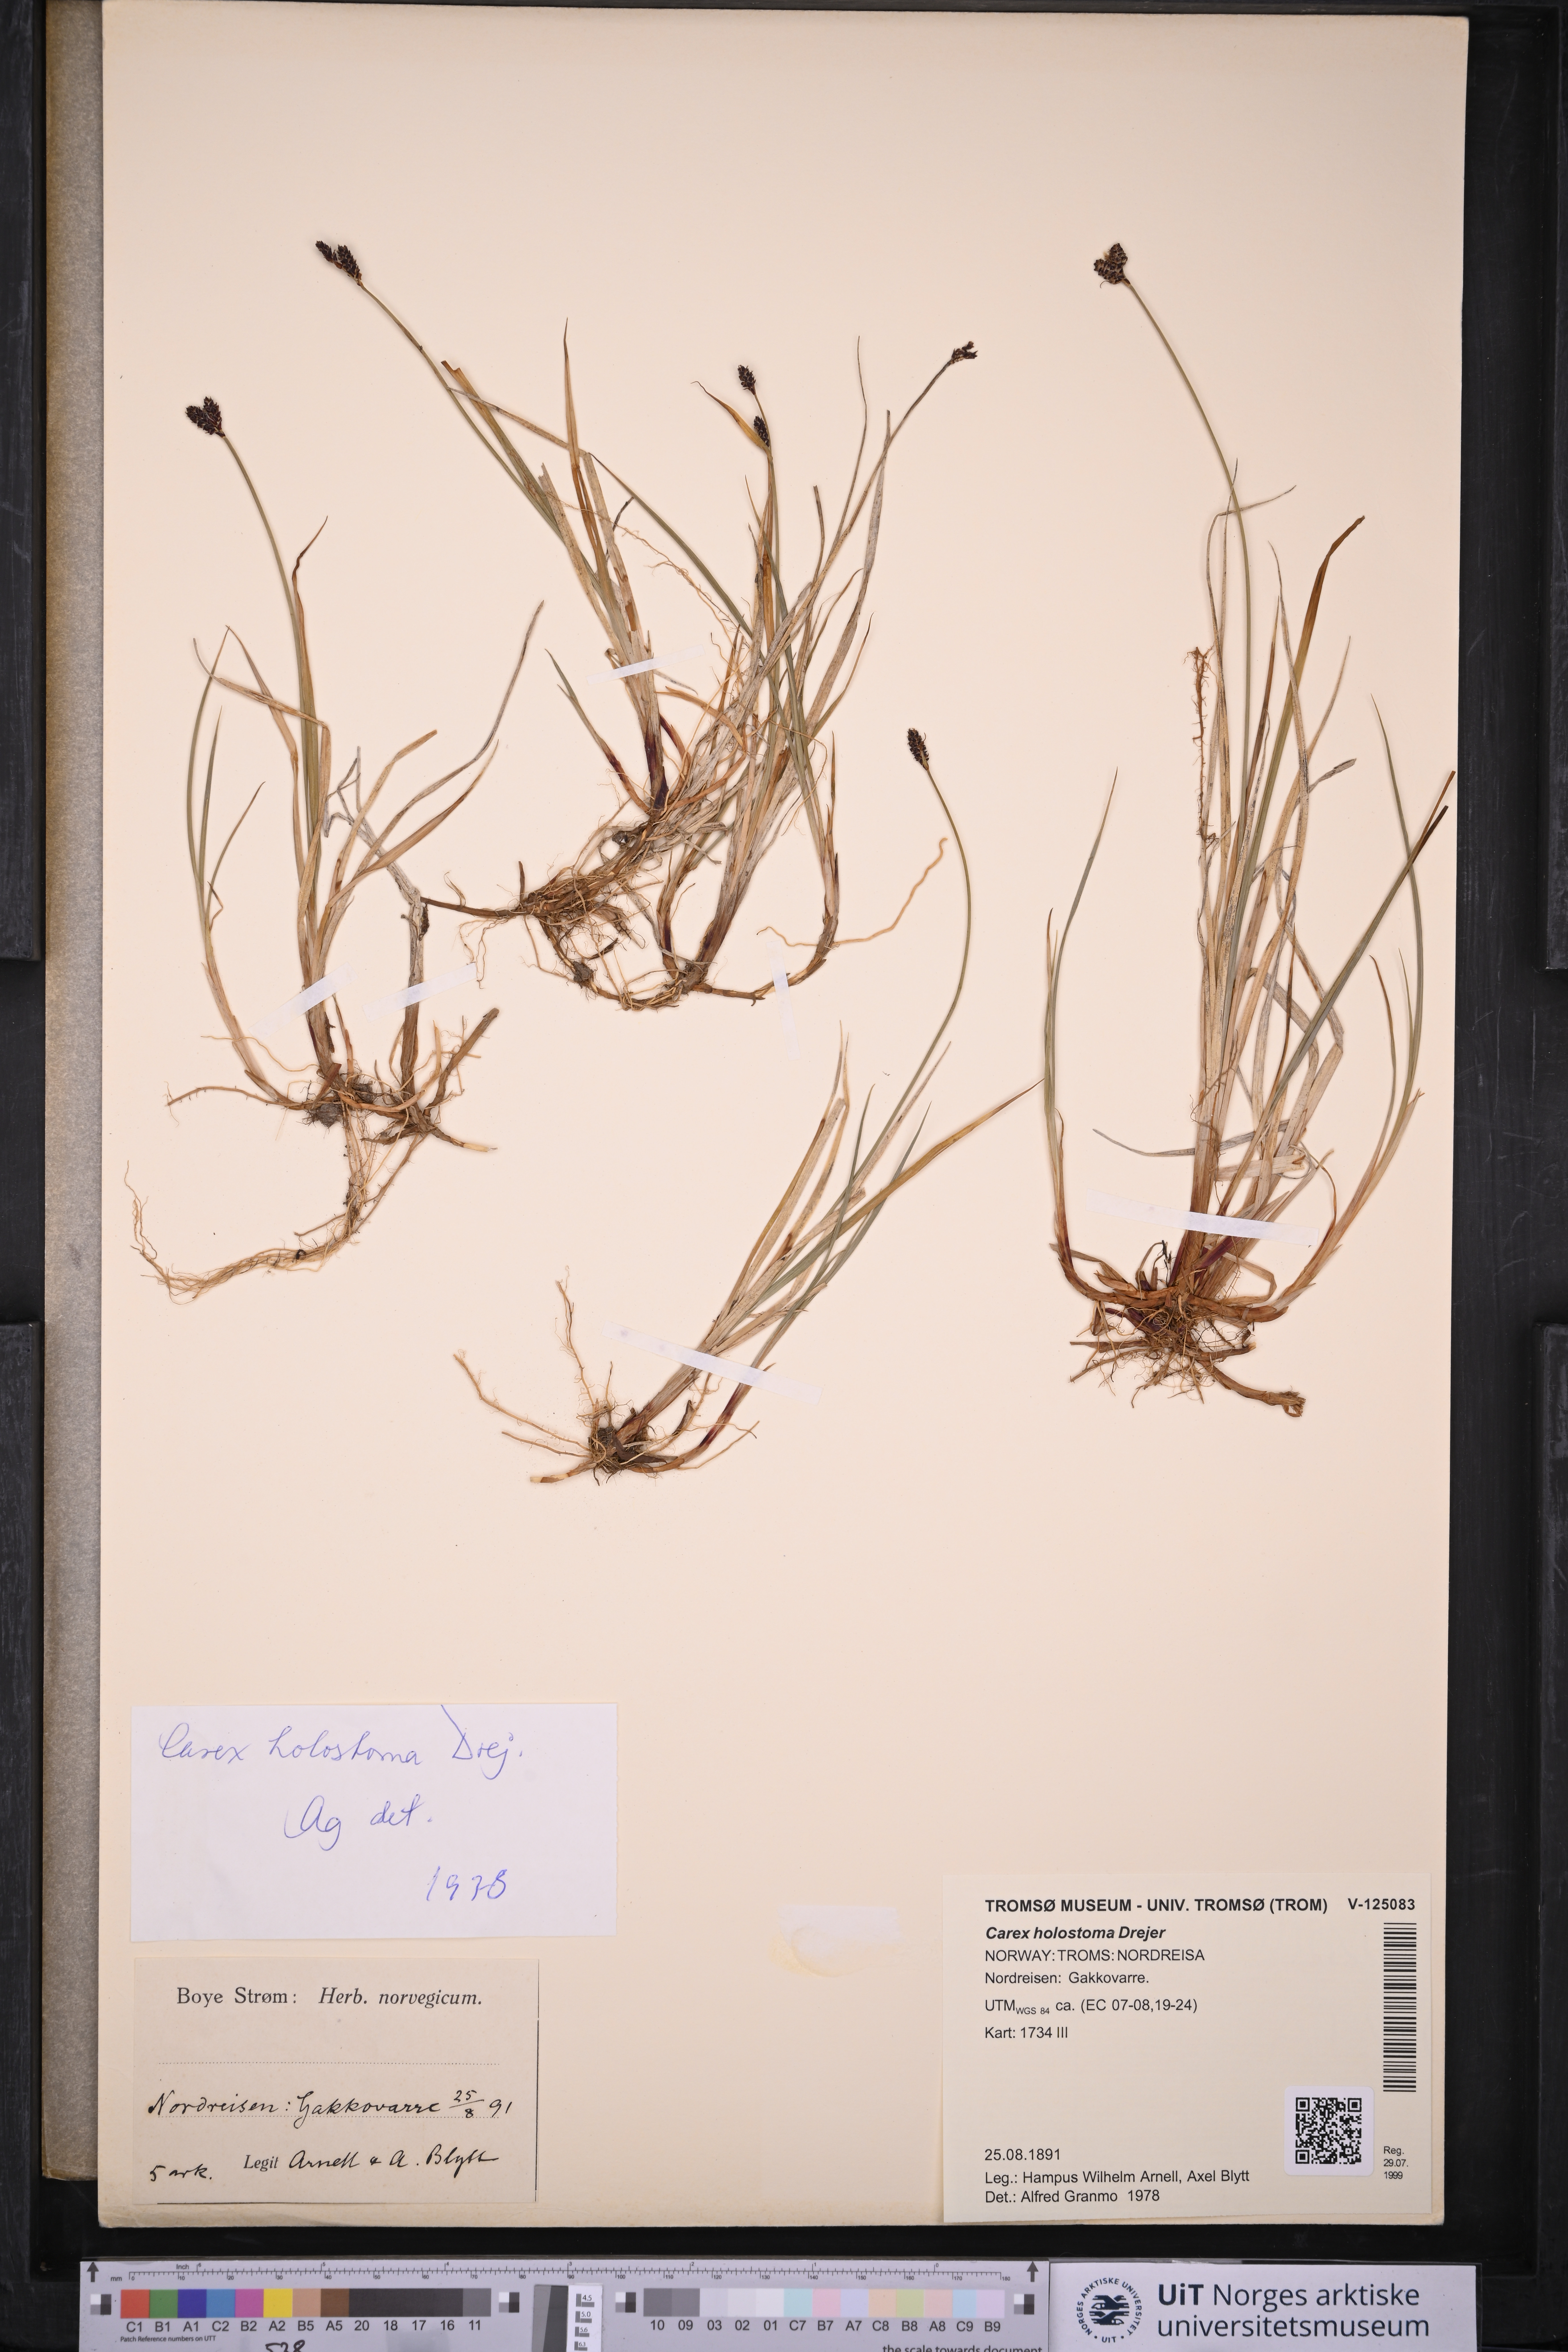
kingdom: Plantae
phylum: Tracheophyta
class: Liliopsida
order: Poales
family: Cyperaceae
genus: Carex
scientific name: Carex holostoma
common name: Arctic marsh sedge
